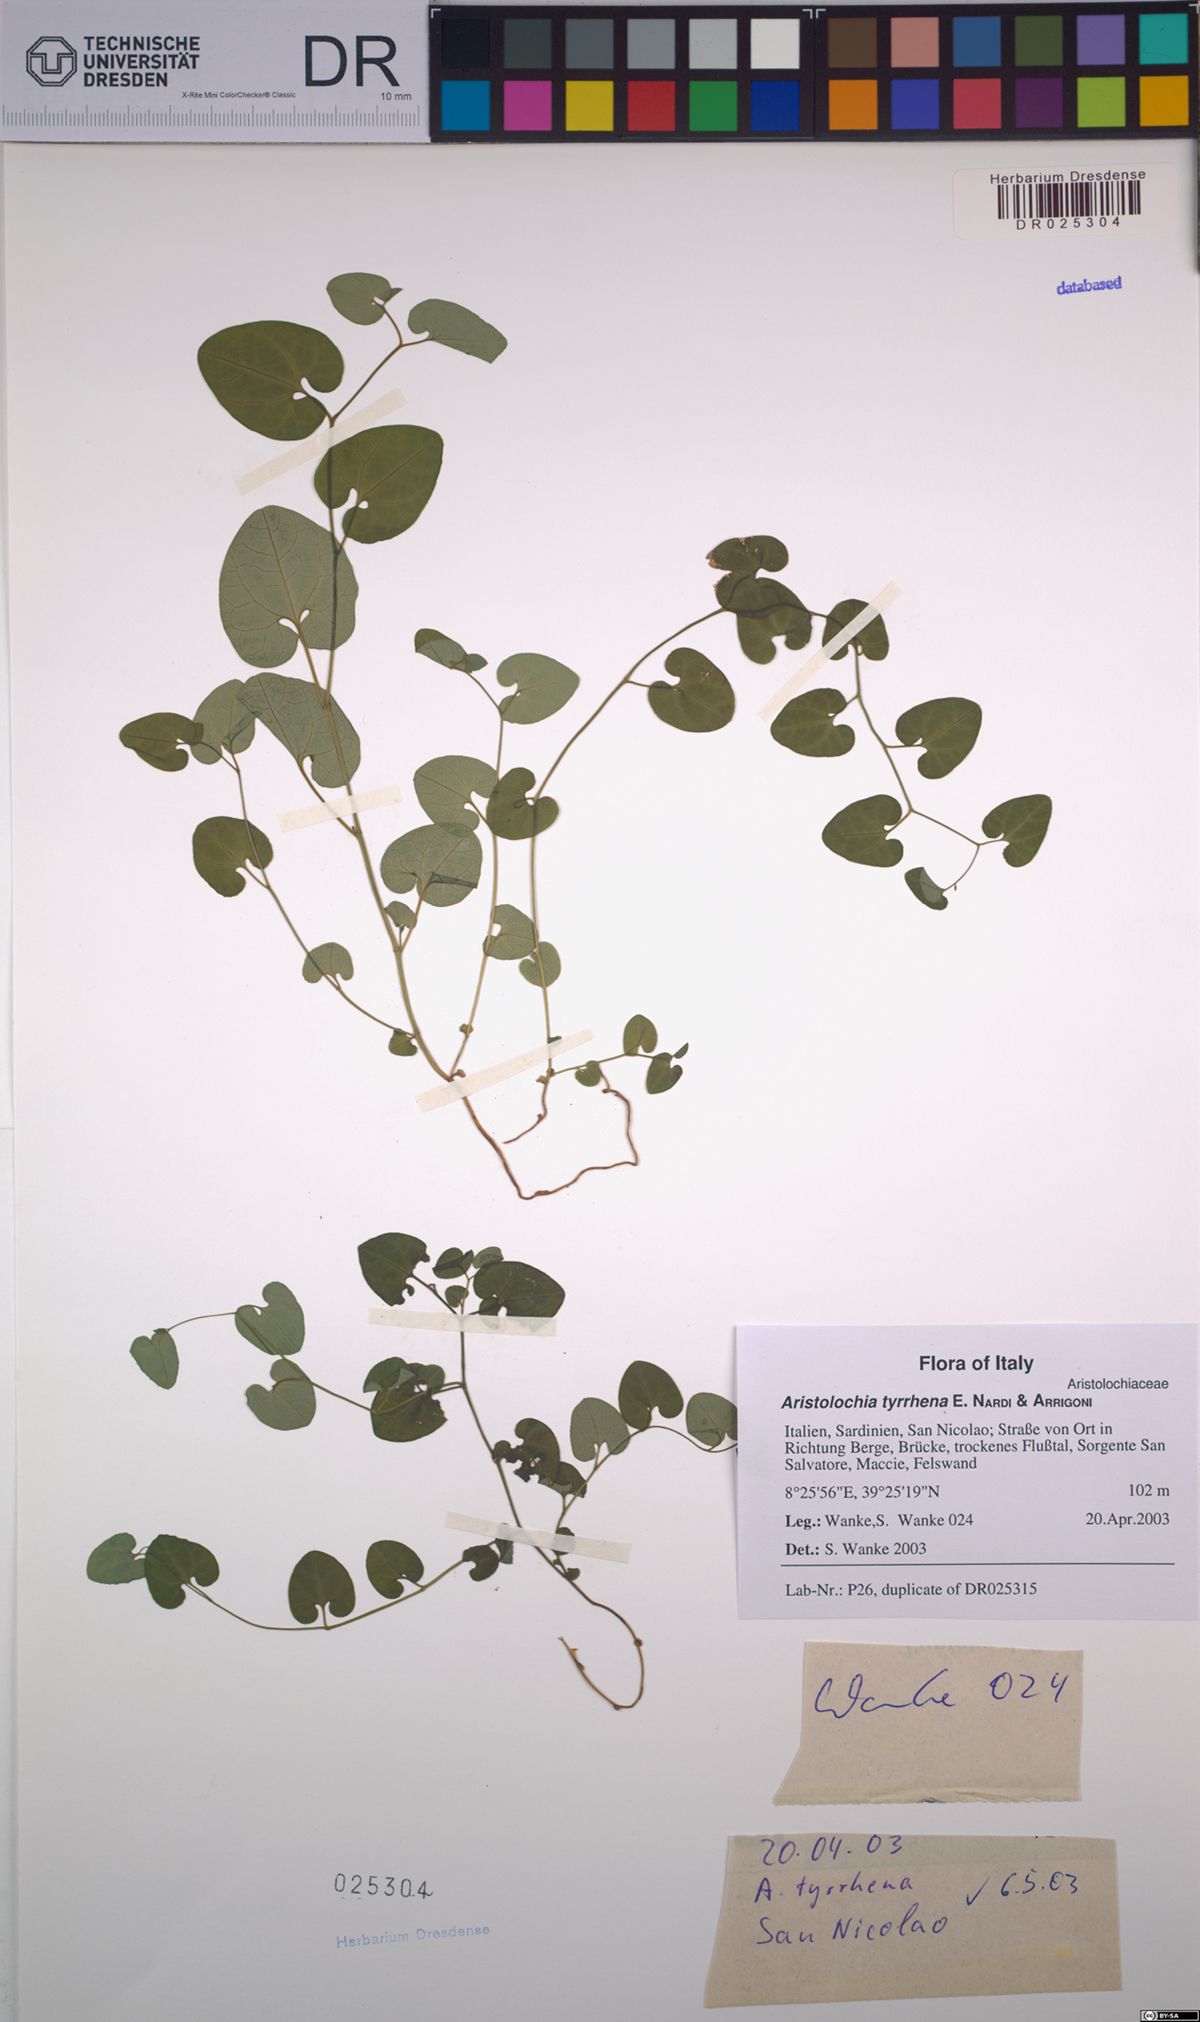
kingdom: Plantae
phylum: Tracheophyta
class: Magnoliopsida
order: Piperales
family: Aristolochiaceae
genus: Aristolochia
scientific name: Aristolochia tyrrhena
